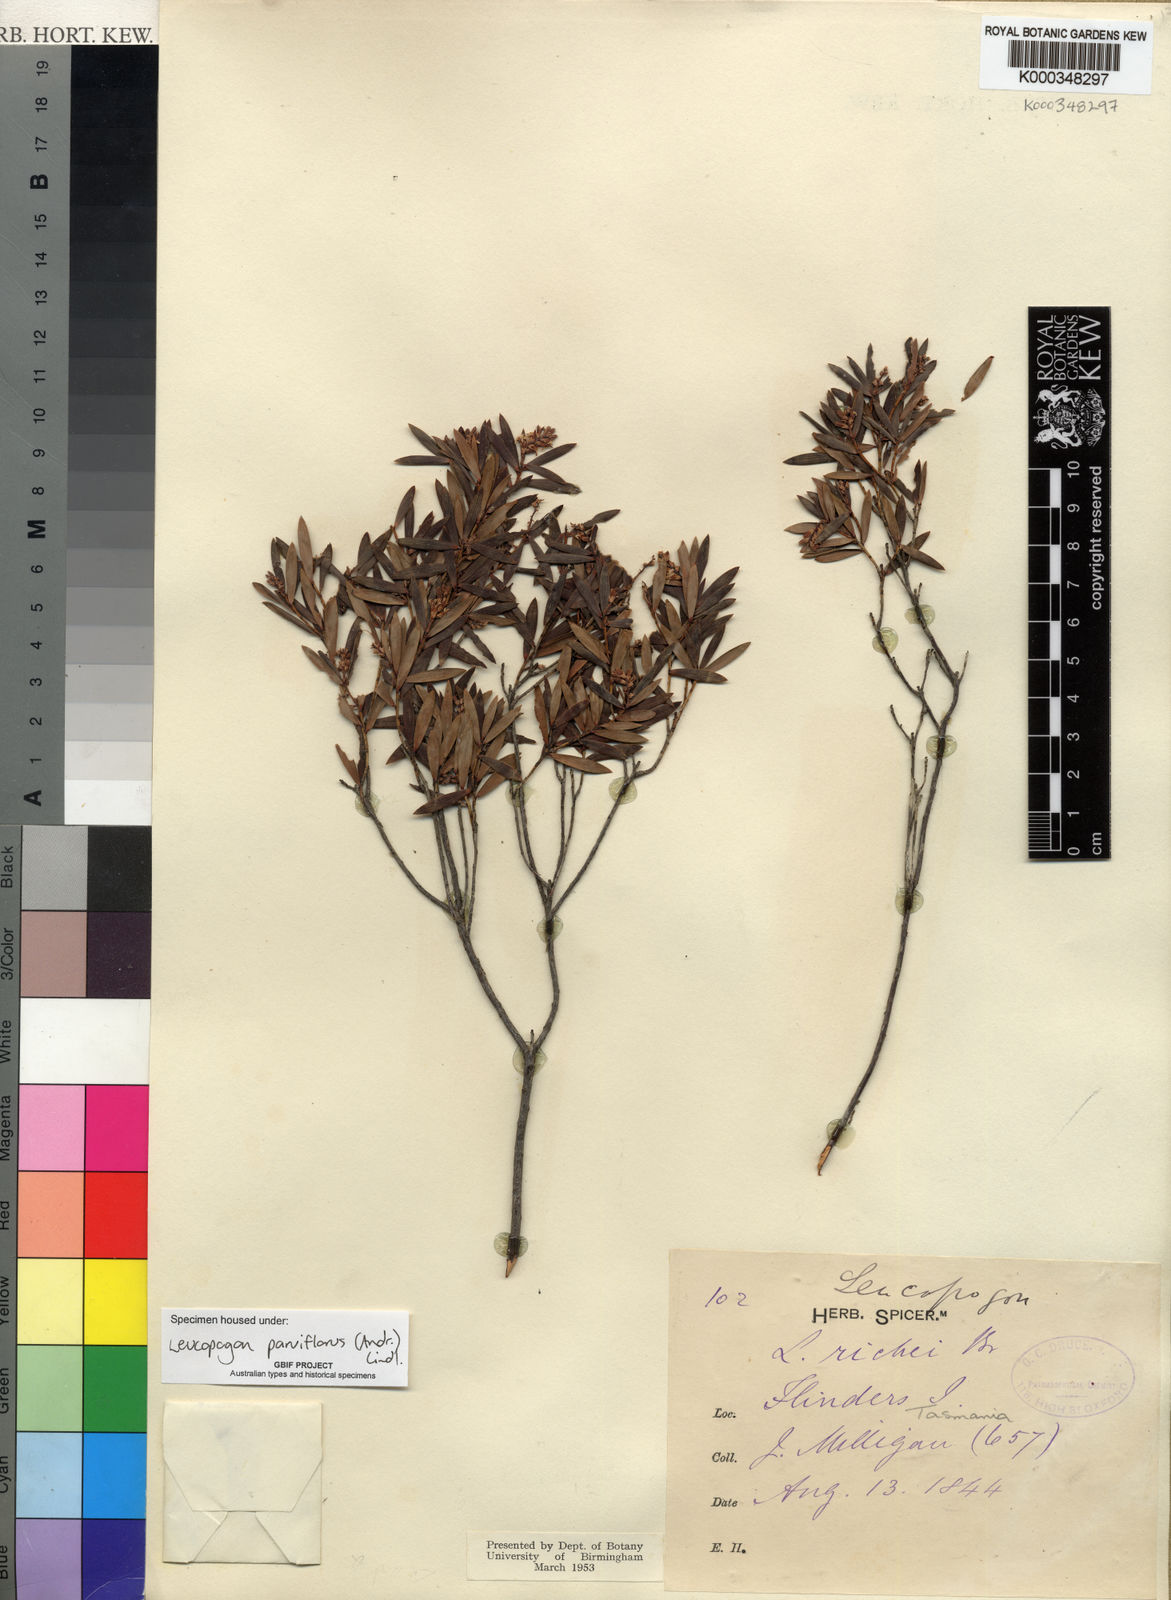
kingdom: Plantae
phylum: Tracheophyta
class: Magnoliopsida
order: Ericales
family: Ericaceae
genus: Leptecophylla
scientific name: Leptecophylla parvifolia
